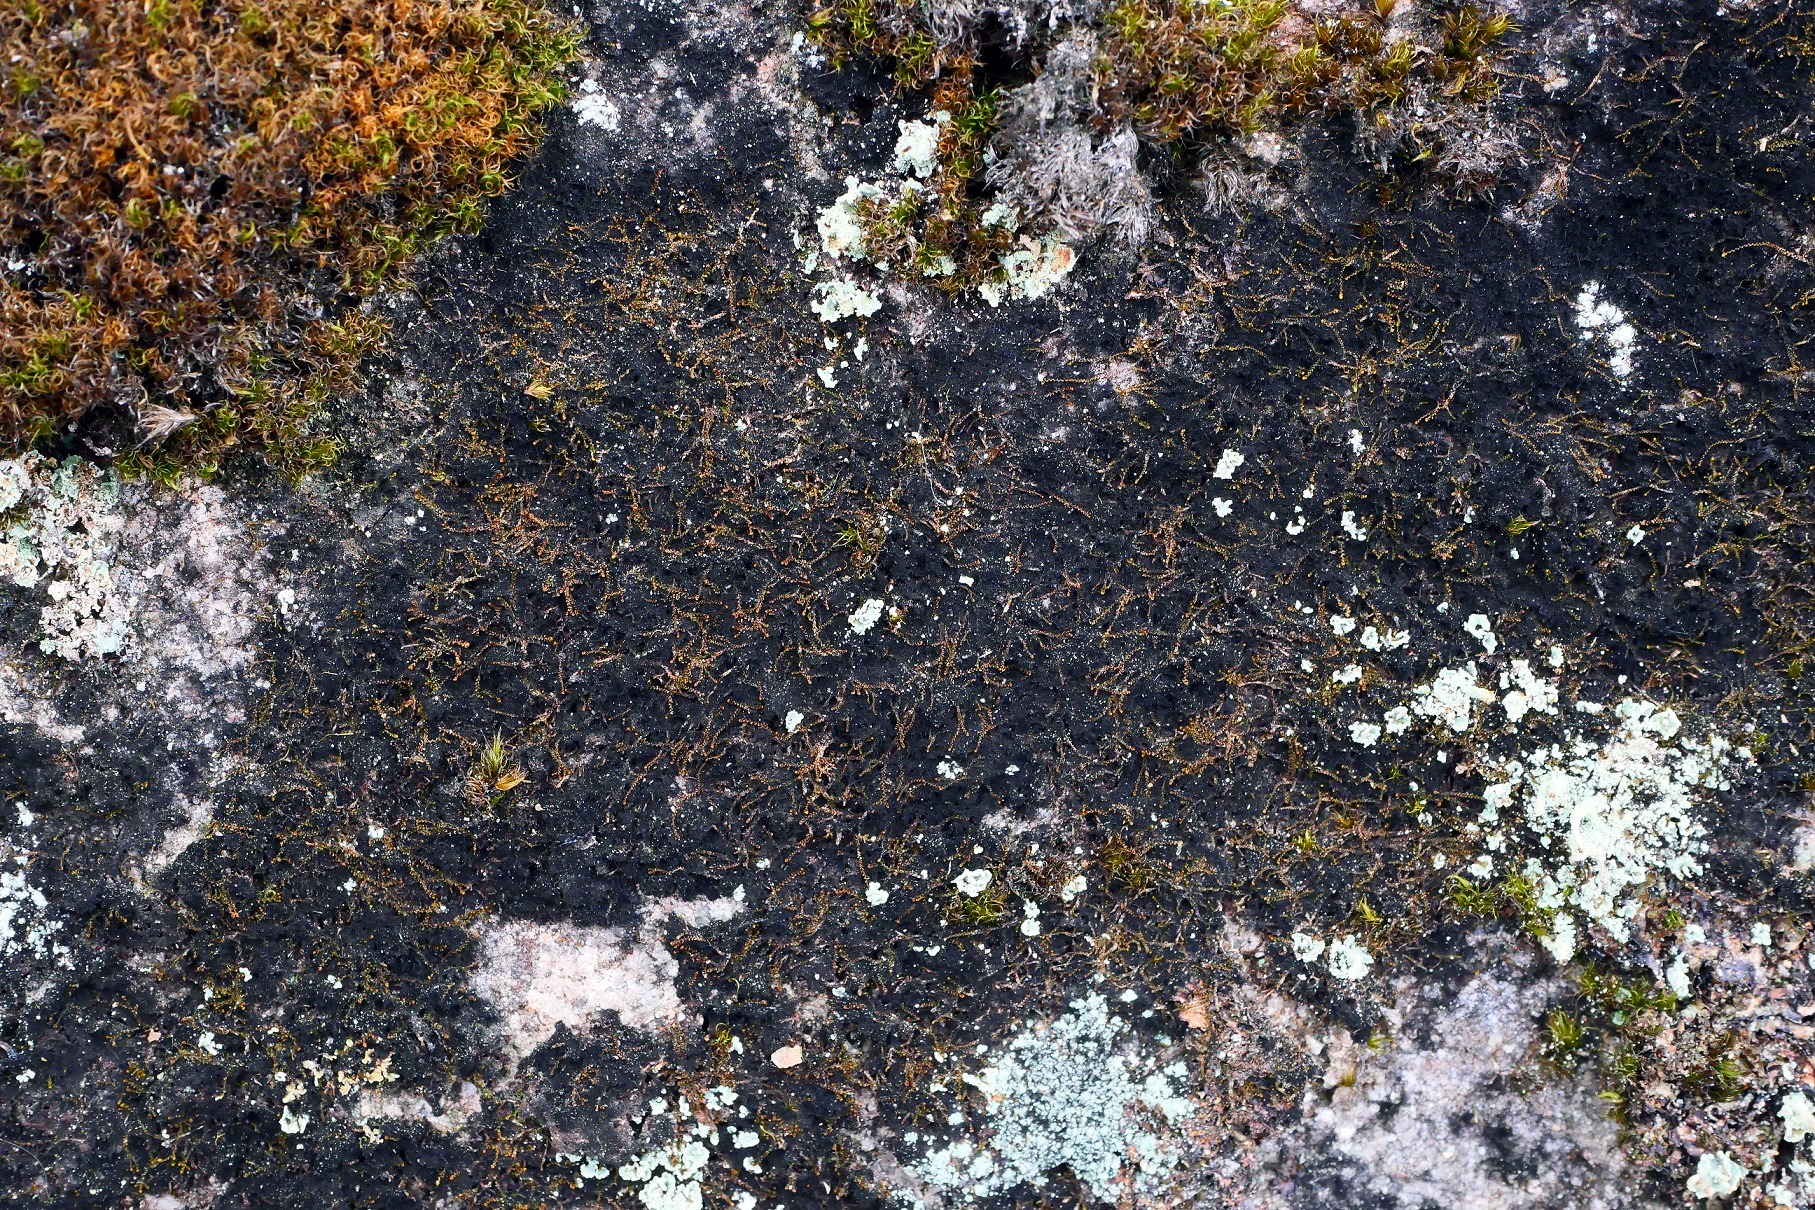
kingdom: Plantae
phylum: Marchantiophyta
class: Jungermanniopsida
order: Jungermanniales
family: Anastrophyllaceae
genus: Sphenolobus
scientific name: Sphenolobus minutus
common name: Liden rendeblad
